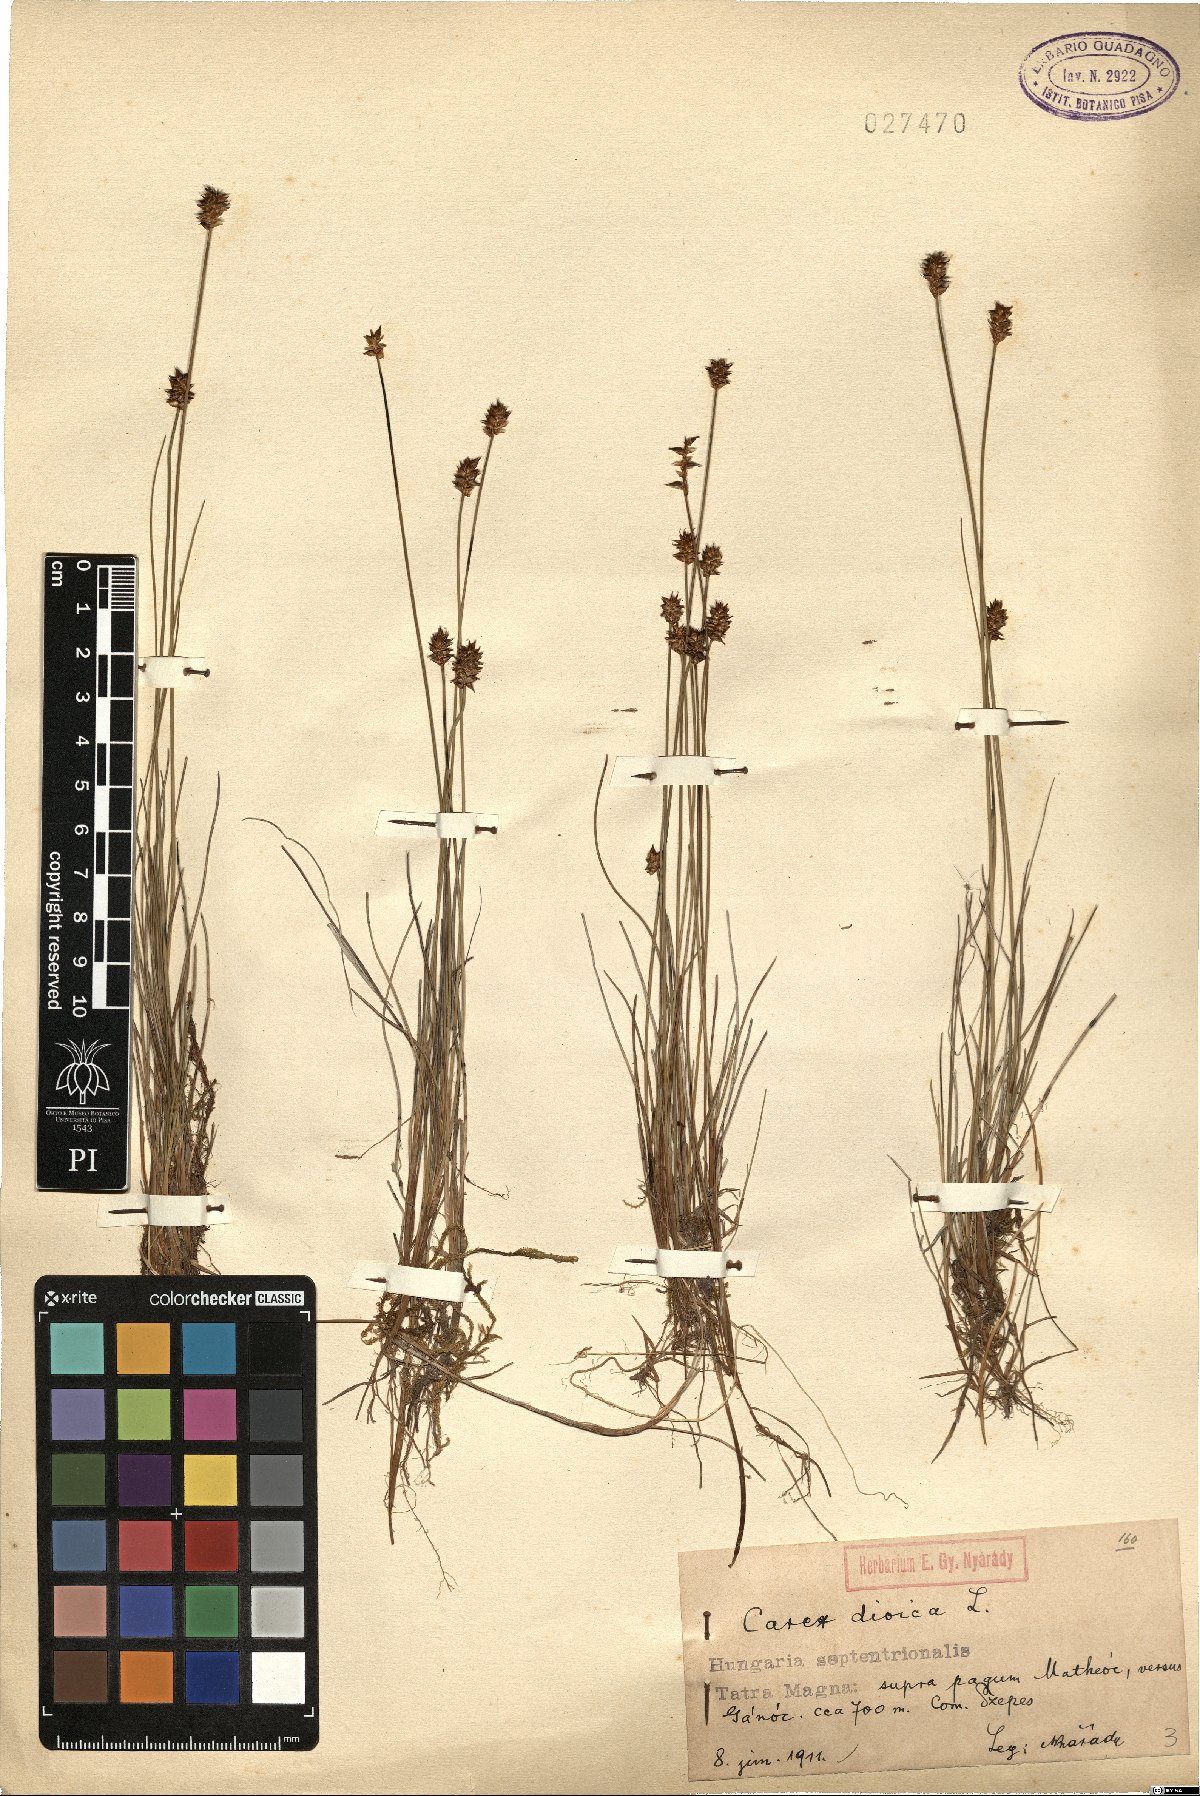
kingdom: Plantae
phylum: Tracheophyta
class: Liliopsida
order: Poales
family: Cyperaceae
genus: Carex
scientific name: Carex dioica
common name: Dioecious sedge
